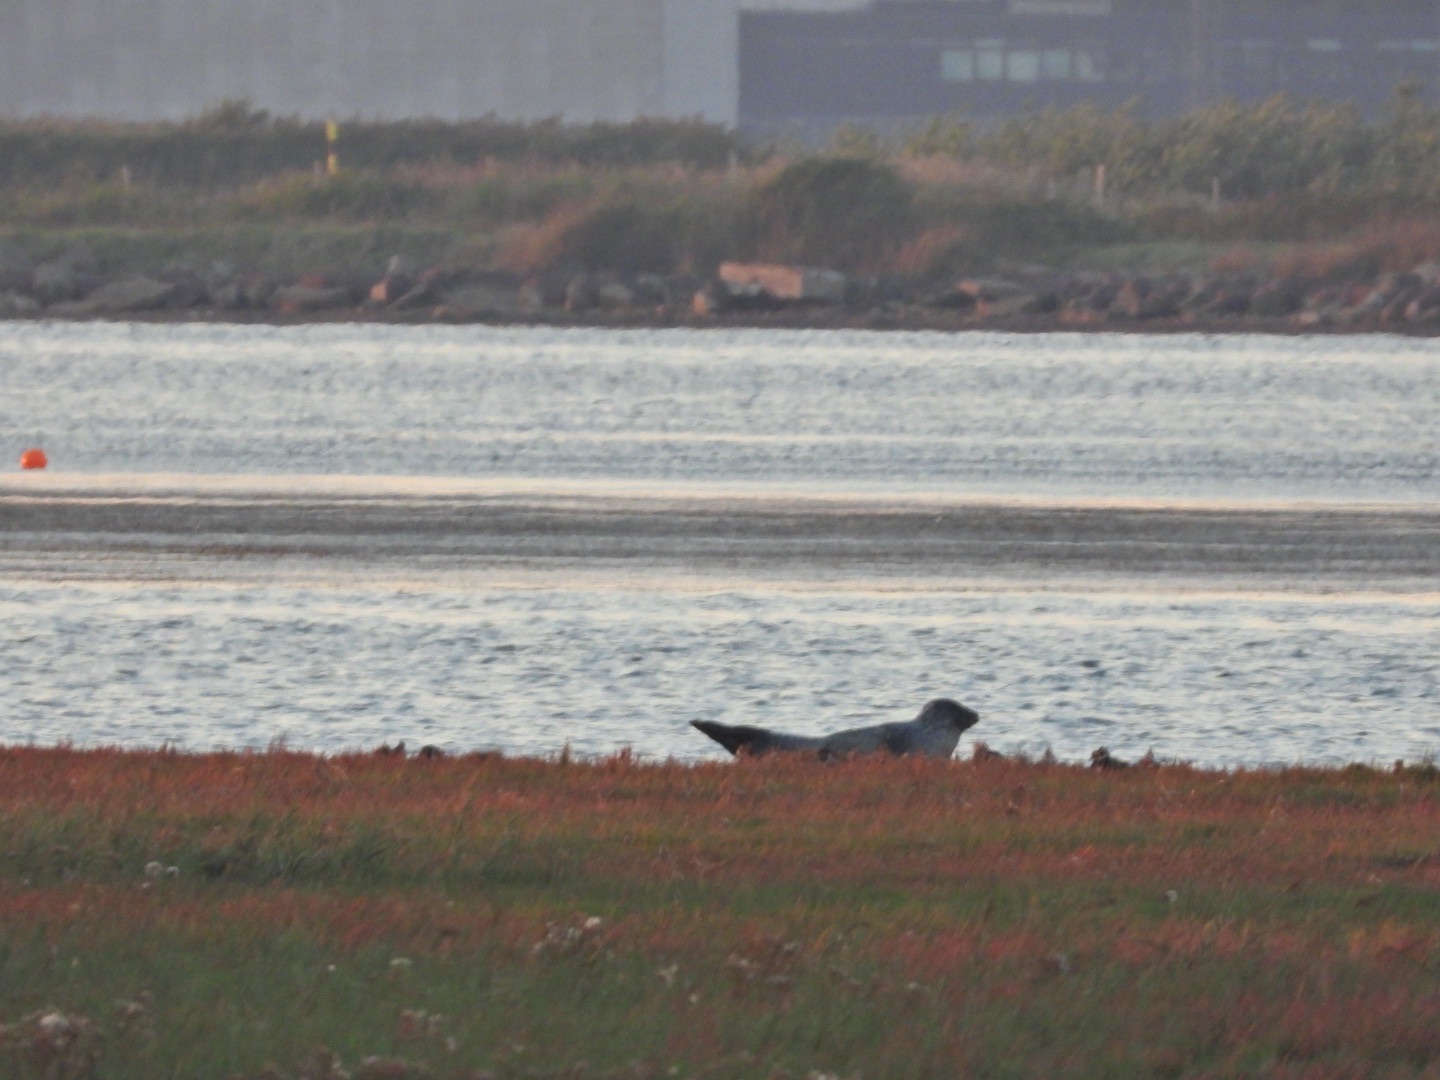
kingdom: Animalia
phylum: Chordata
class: Mammalia
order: Carnivora
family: Phocidae
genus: Phoca
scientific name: Phoca vitulina
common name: Spættet sæl
